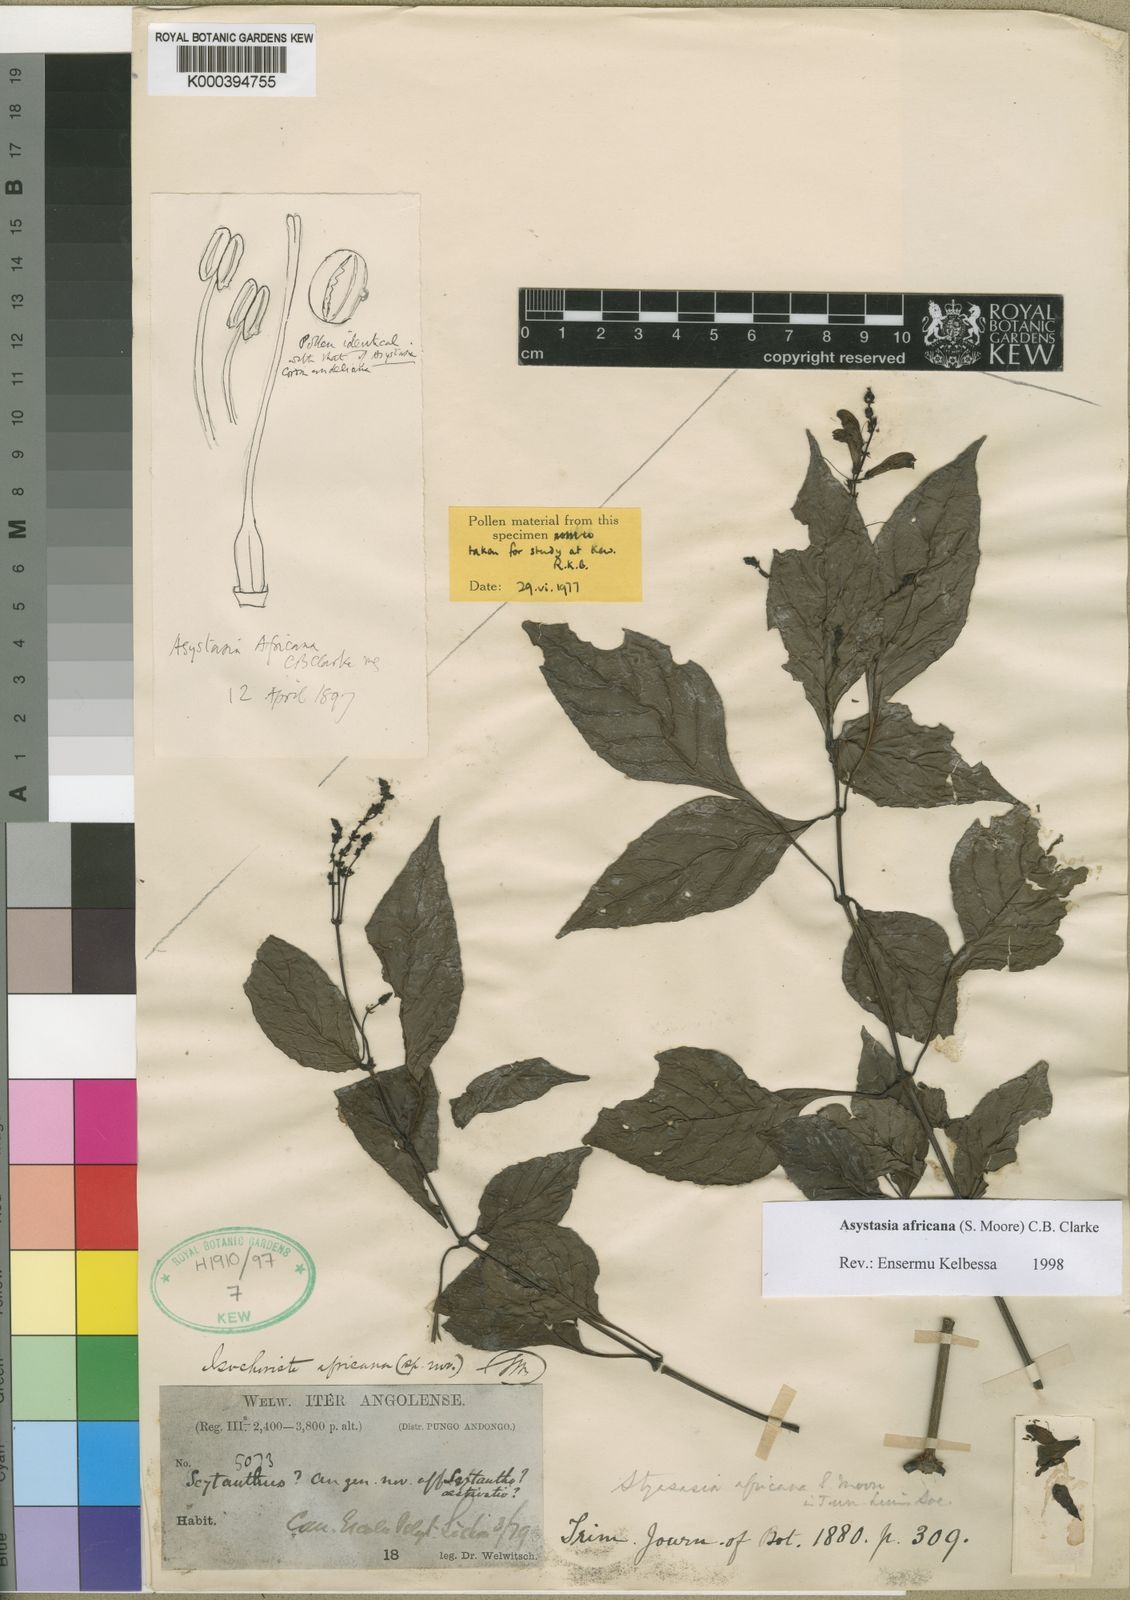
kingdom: Plantae
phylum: Tracheophyta
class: Magnoliopsida
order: Lamiales
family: Acanthaceae
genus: Asystasia
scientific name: Asystasia africana
